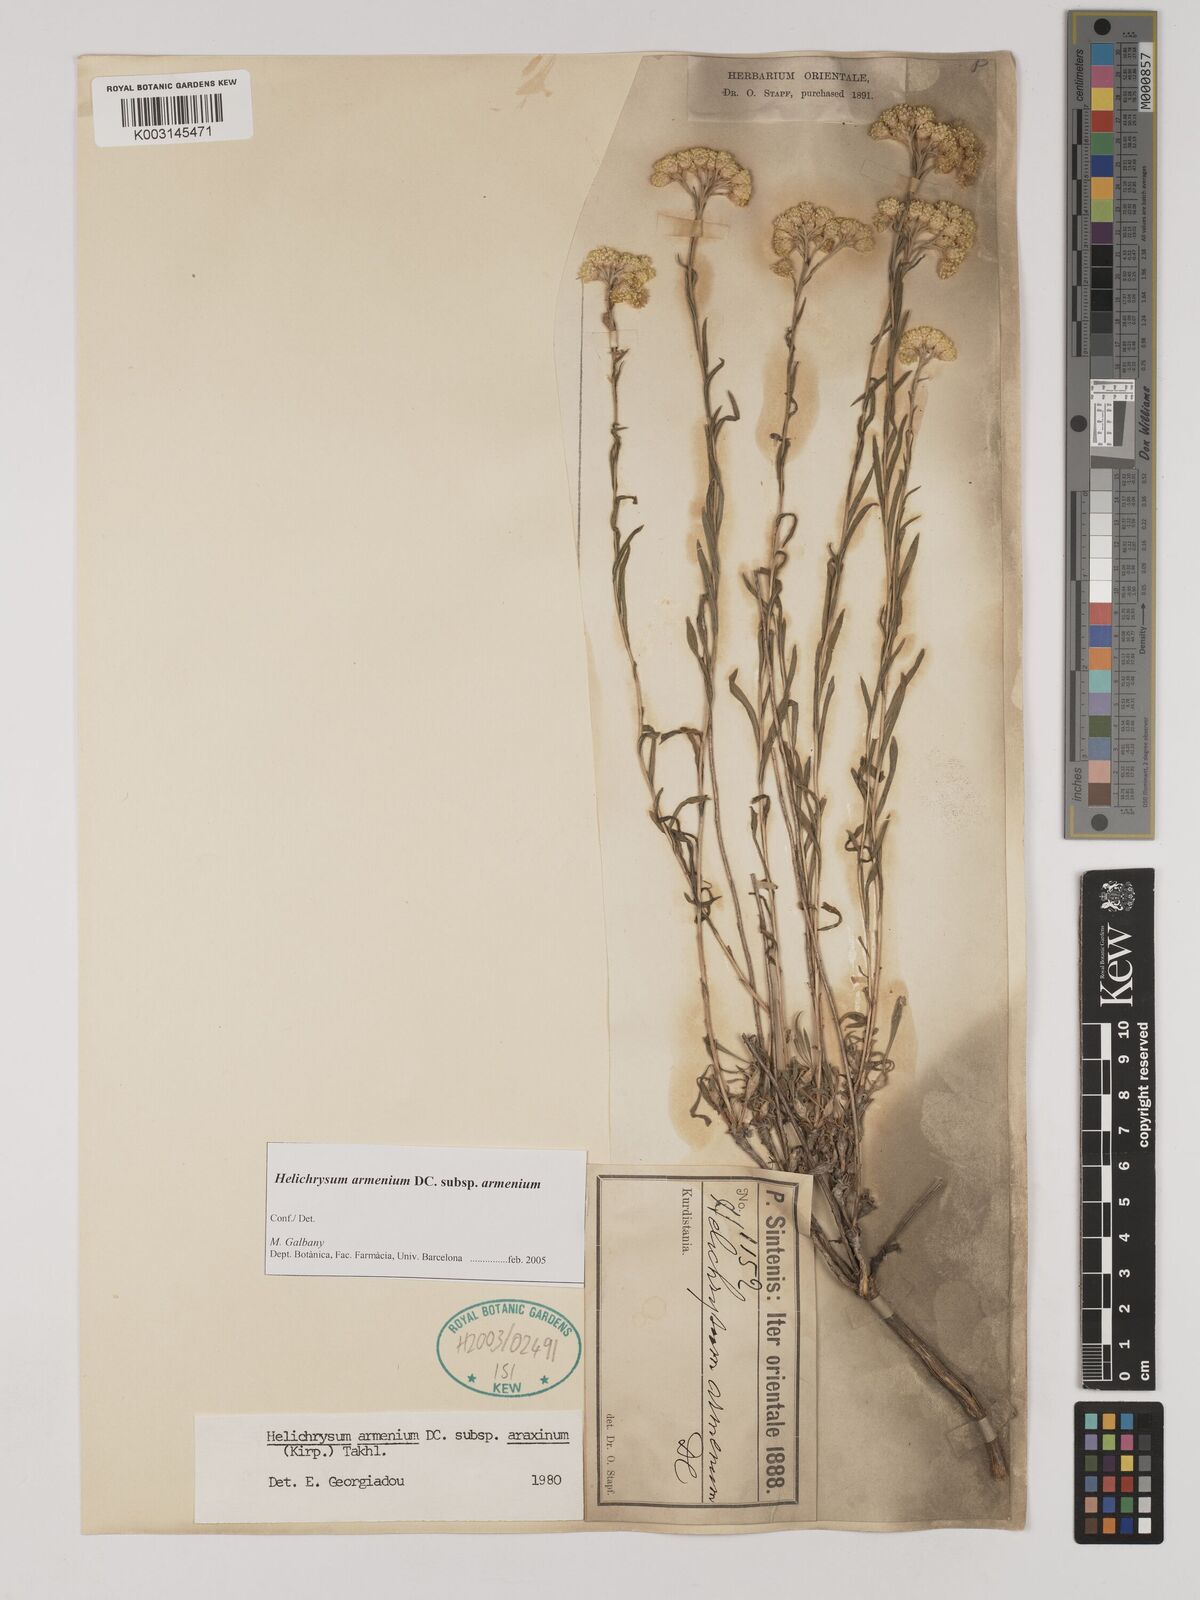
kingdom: Plantae
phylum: Tracheophyta
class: Magnoliopsida
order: Asterales
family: Asteraceae
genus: Helichrysum
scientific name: Helichrysum armenium
